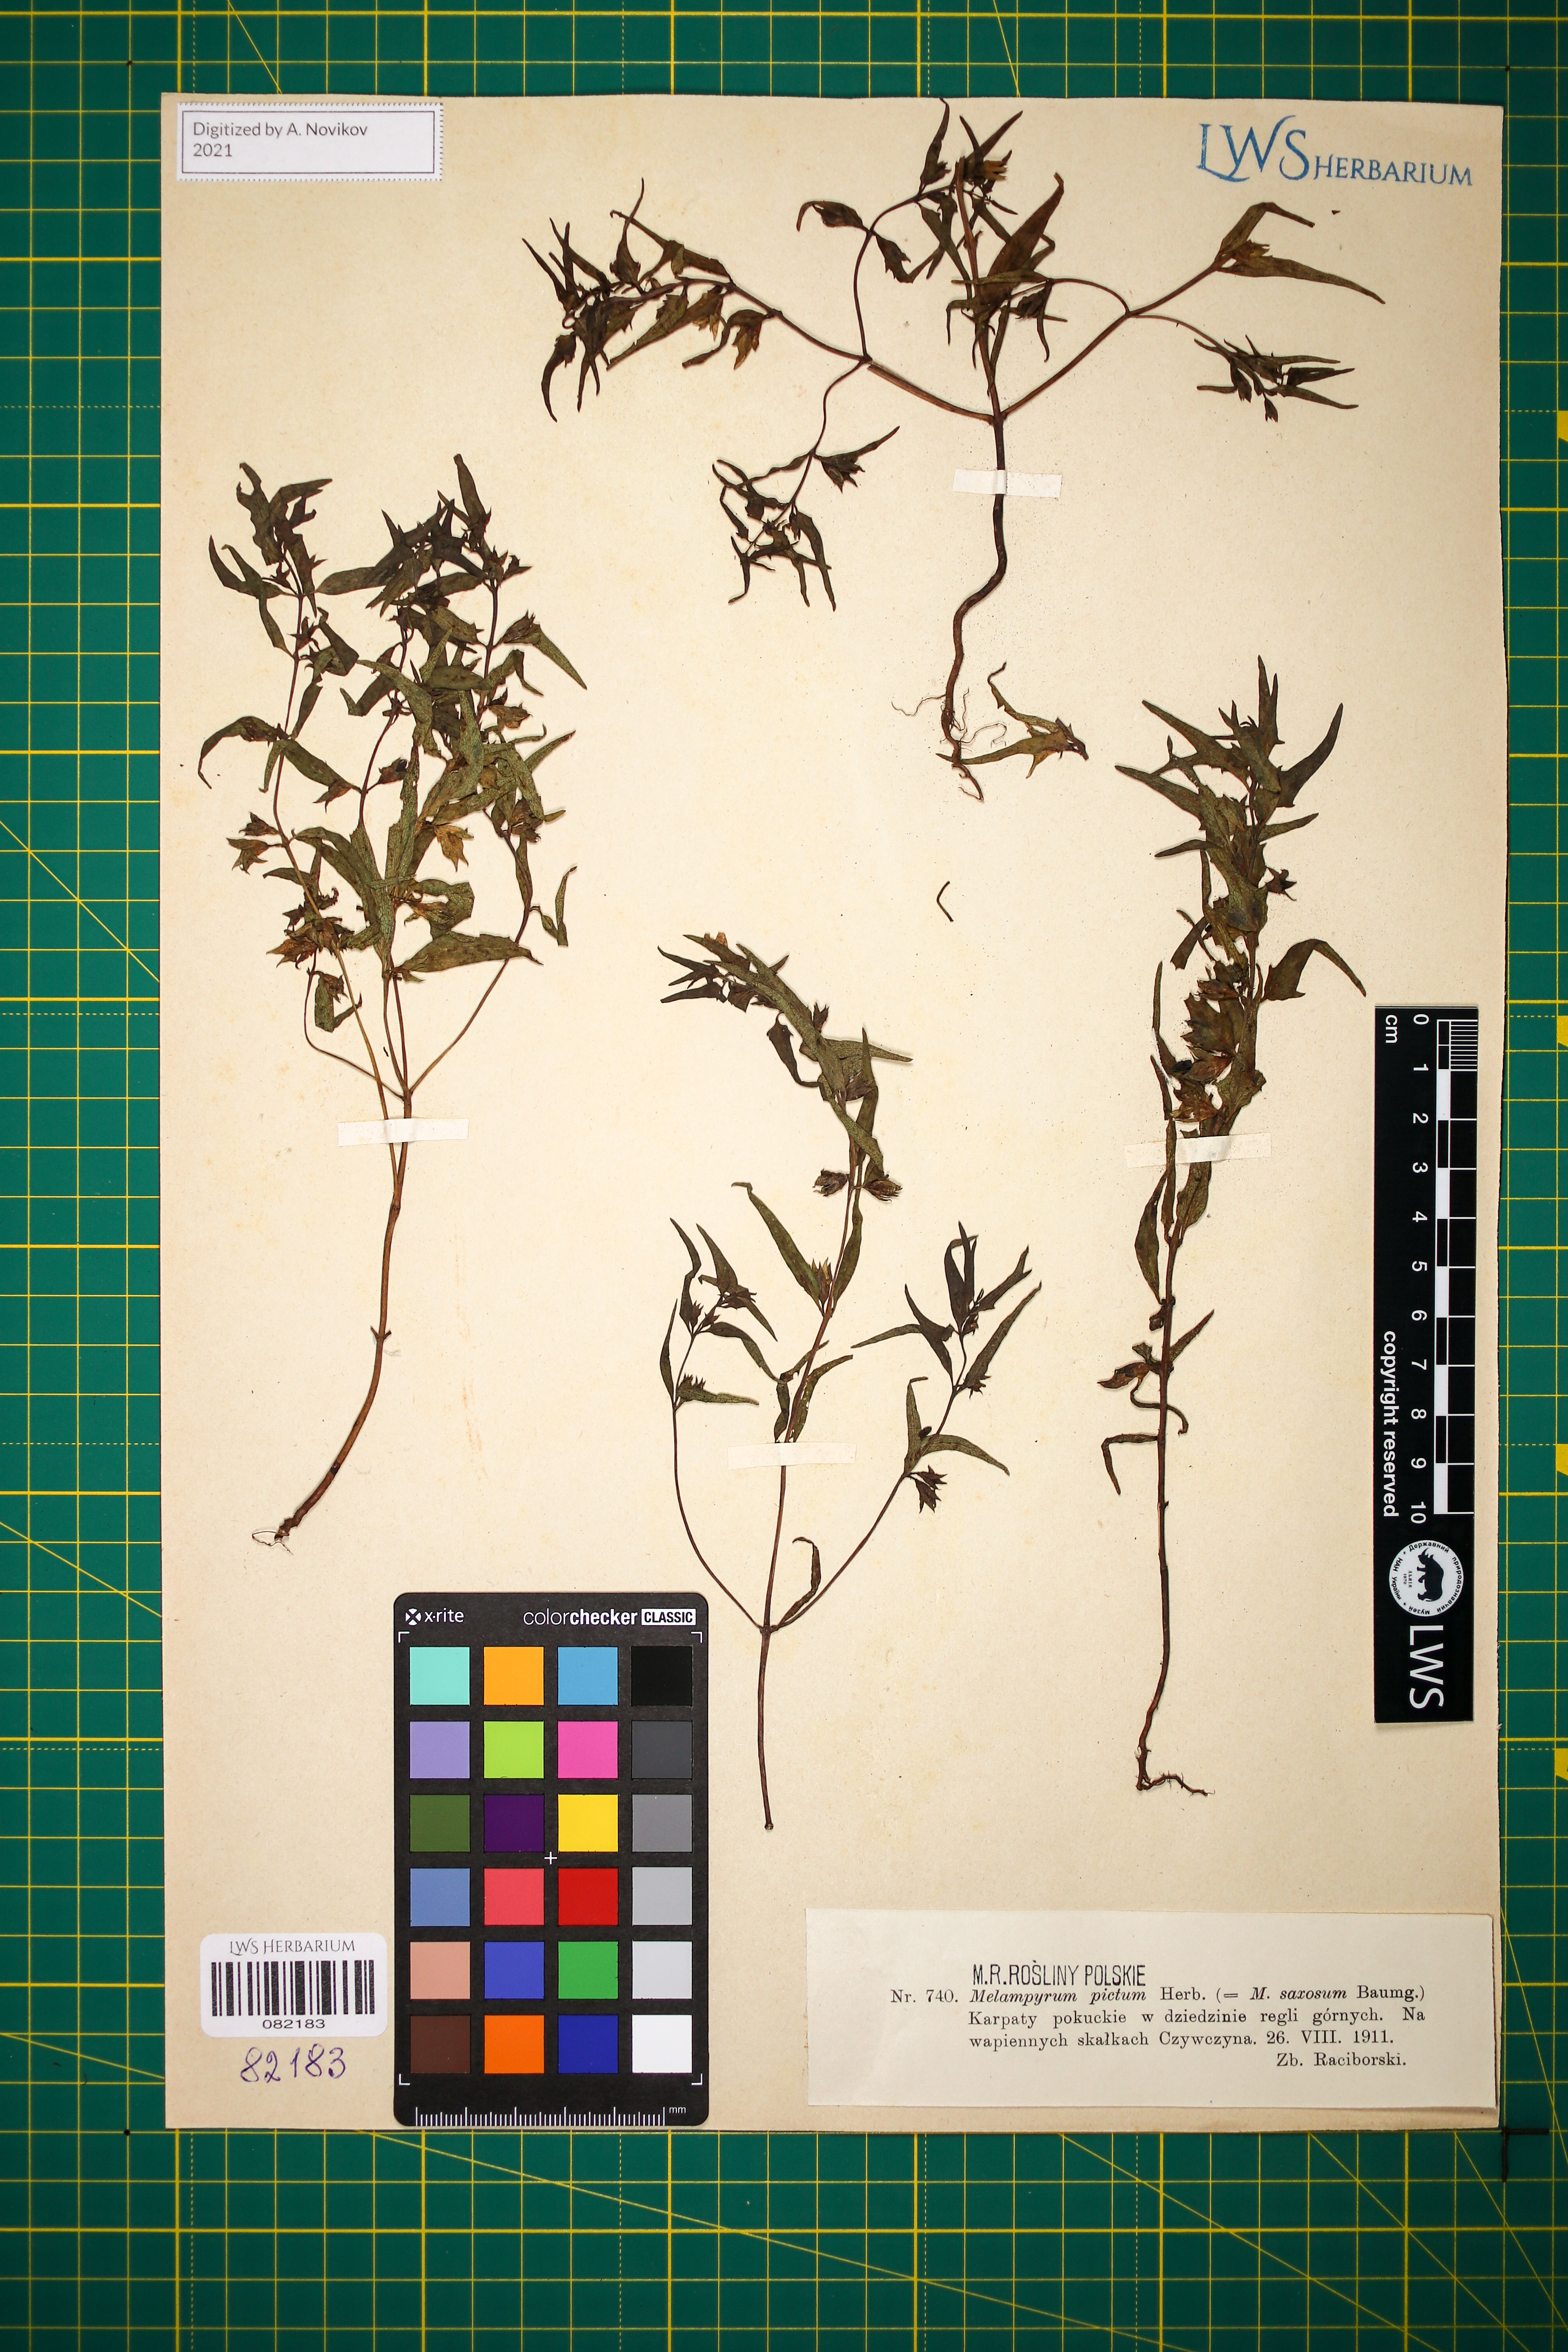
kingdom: Plantae
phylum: Tracheophyta
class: Magnoliopsida
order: Lamiales
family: Orobanchaceae
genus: Melampyrum
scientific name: Melampyrum saxosum
